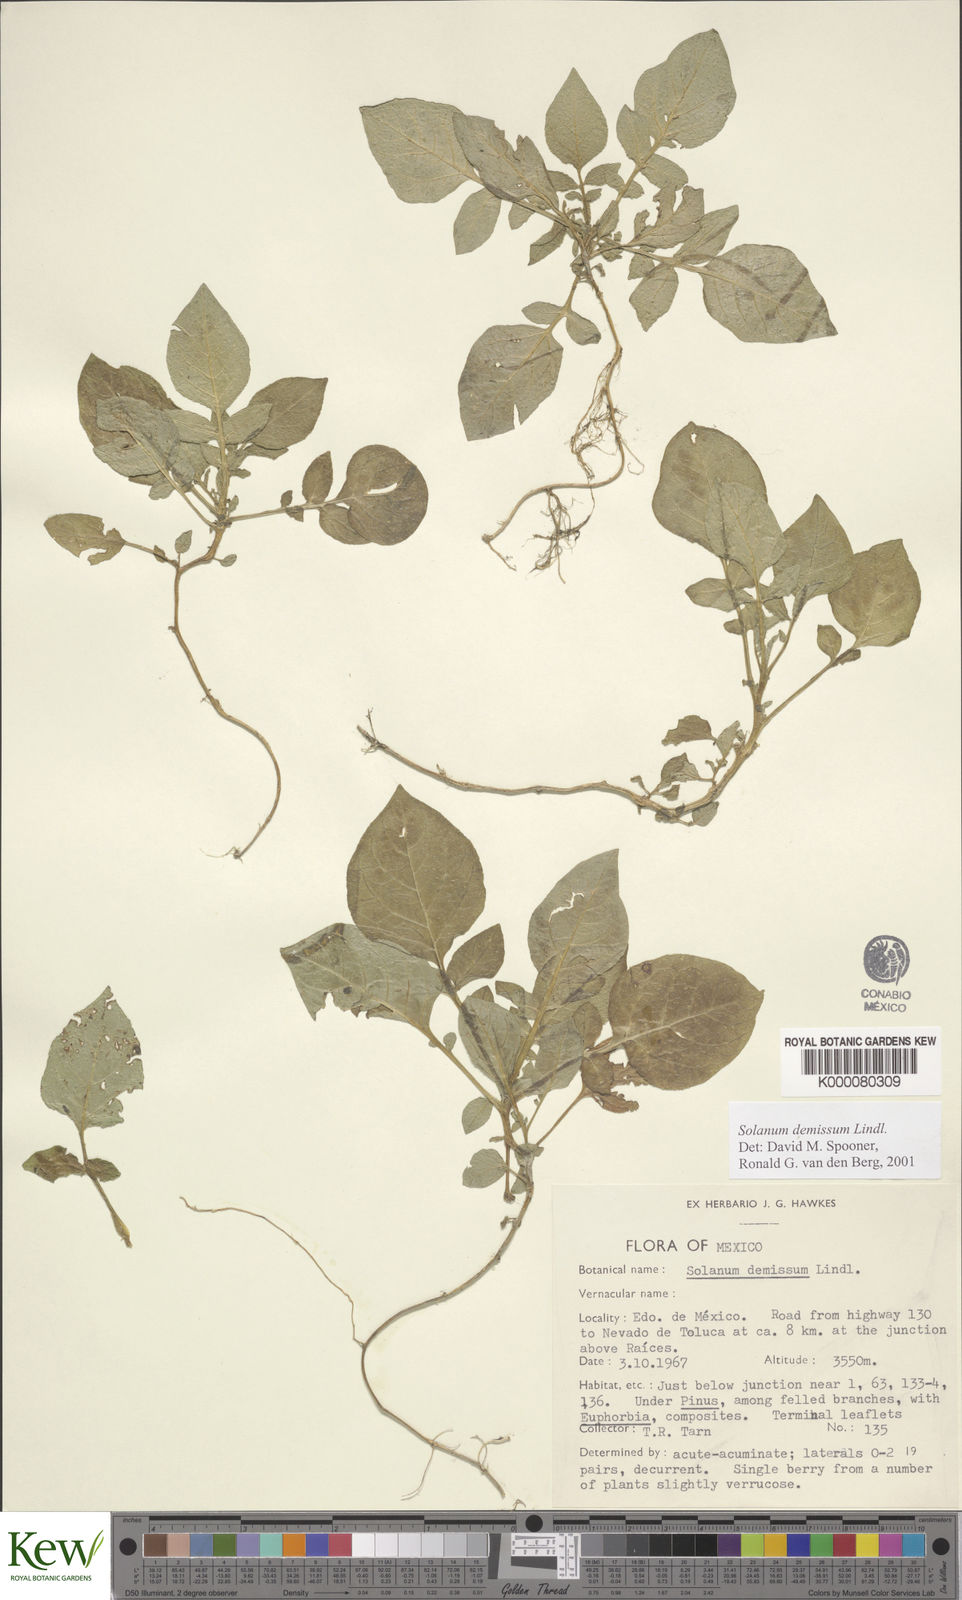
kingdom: Plantae
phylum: Tracheophyta
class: Magnoliopsida
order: Solanales
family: Solanaceae
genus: Solanum
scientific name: Solanum demissum
